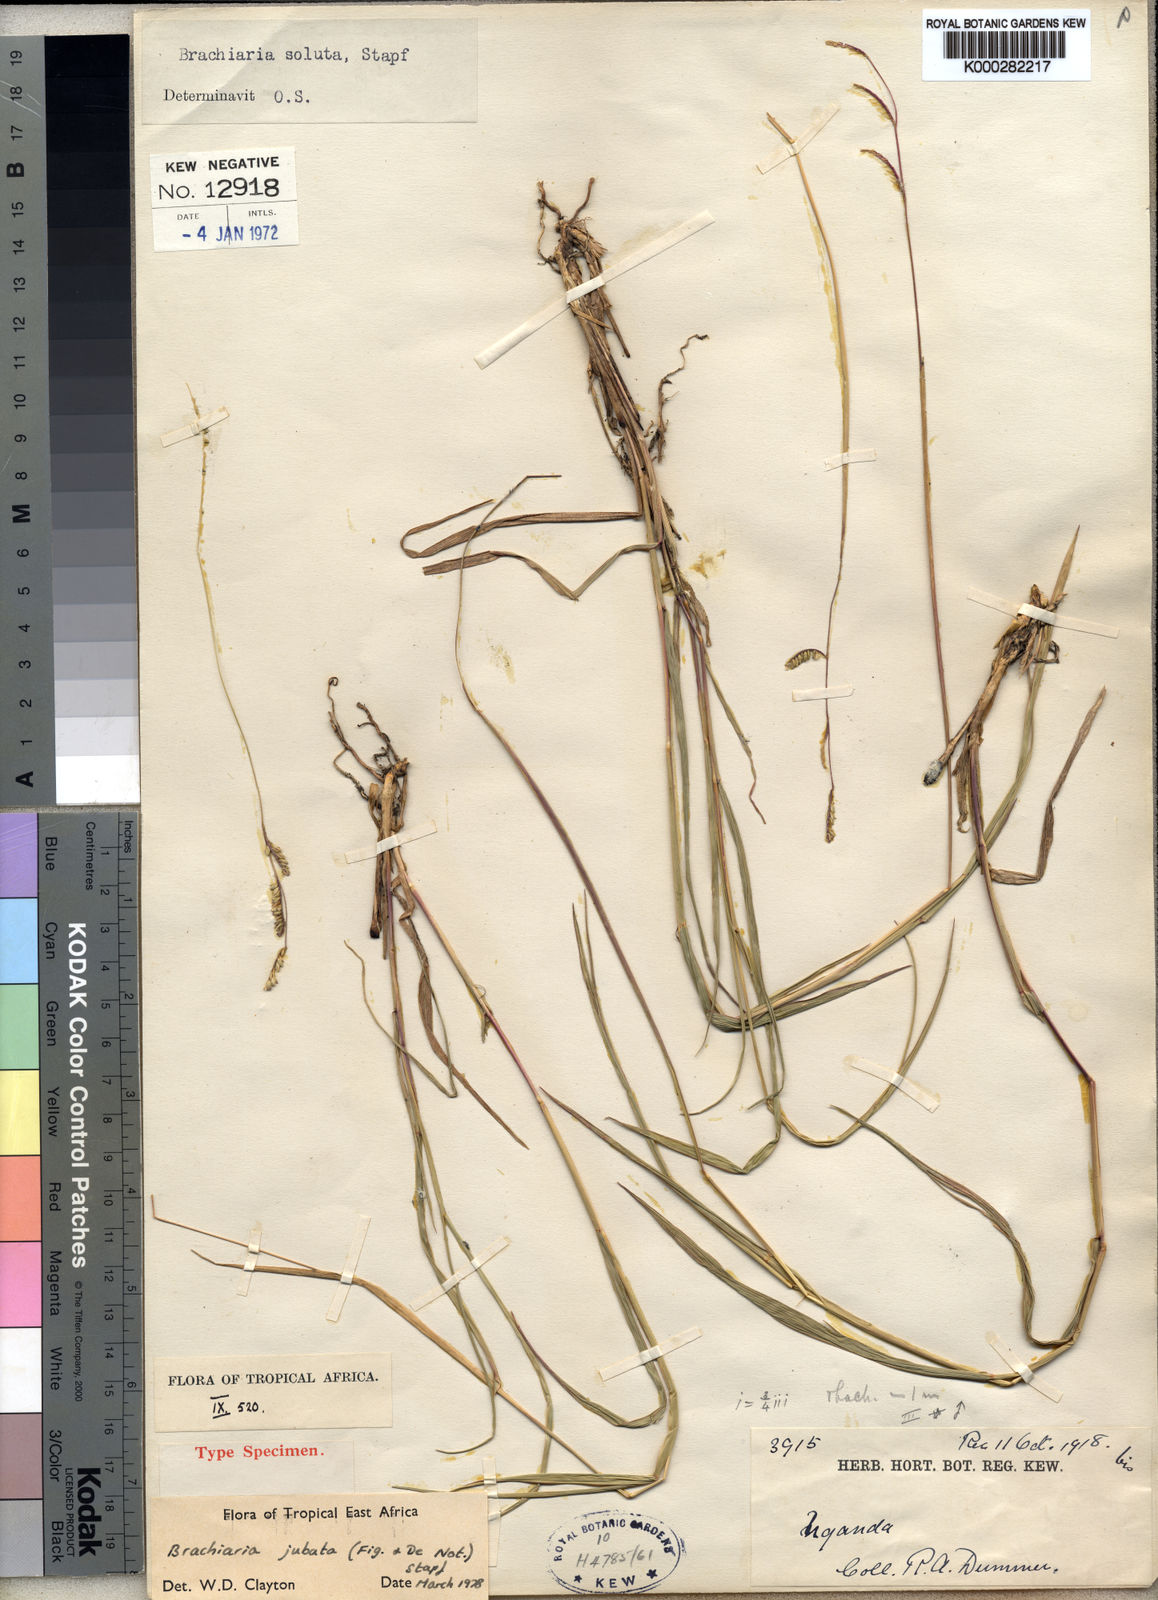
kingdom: Plantae
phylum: Tracheophyta
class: Liliopsida
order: Poales
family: Poaceae
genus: Urochloa
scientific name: Urochloa jubata
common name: Buffalograss
